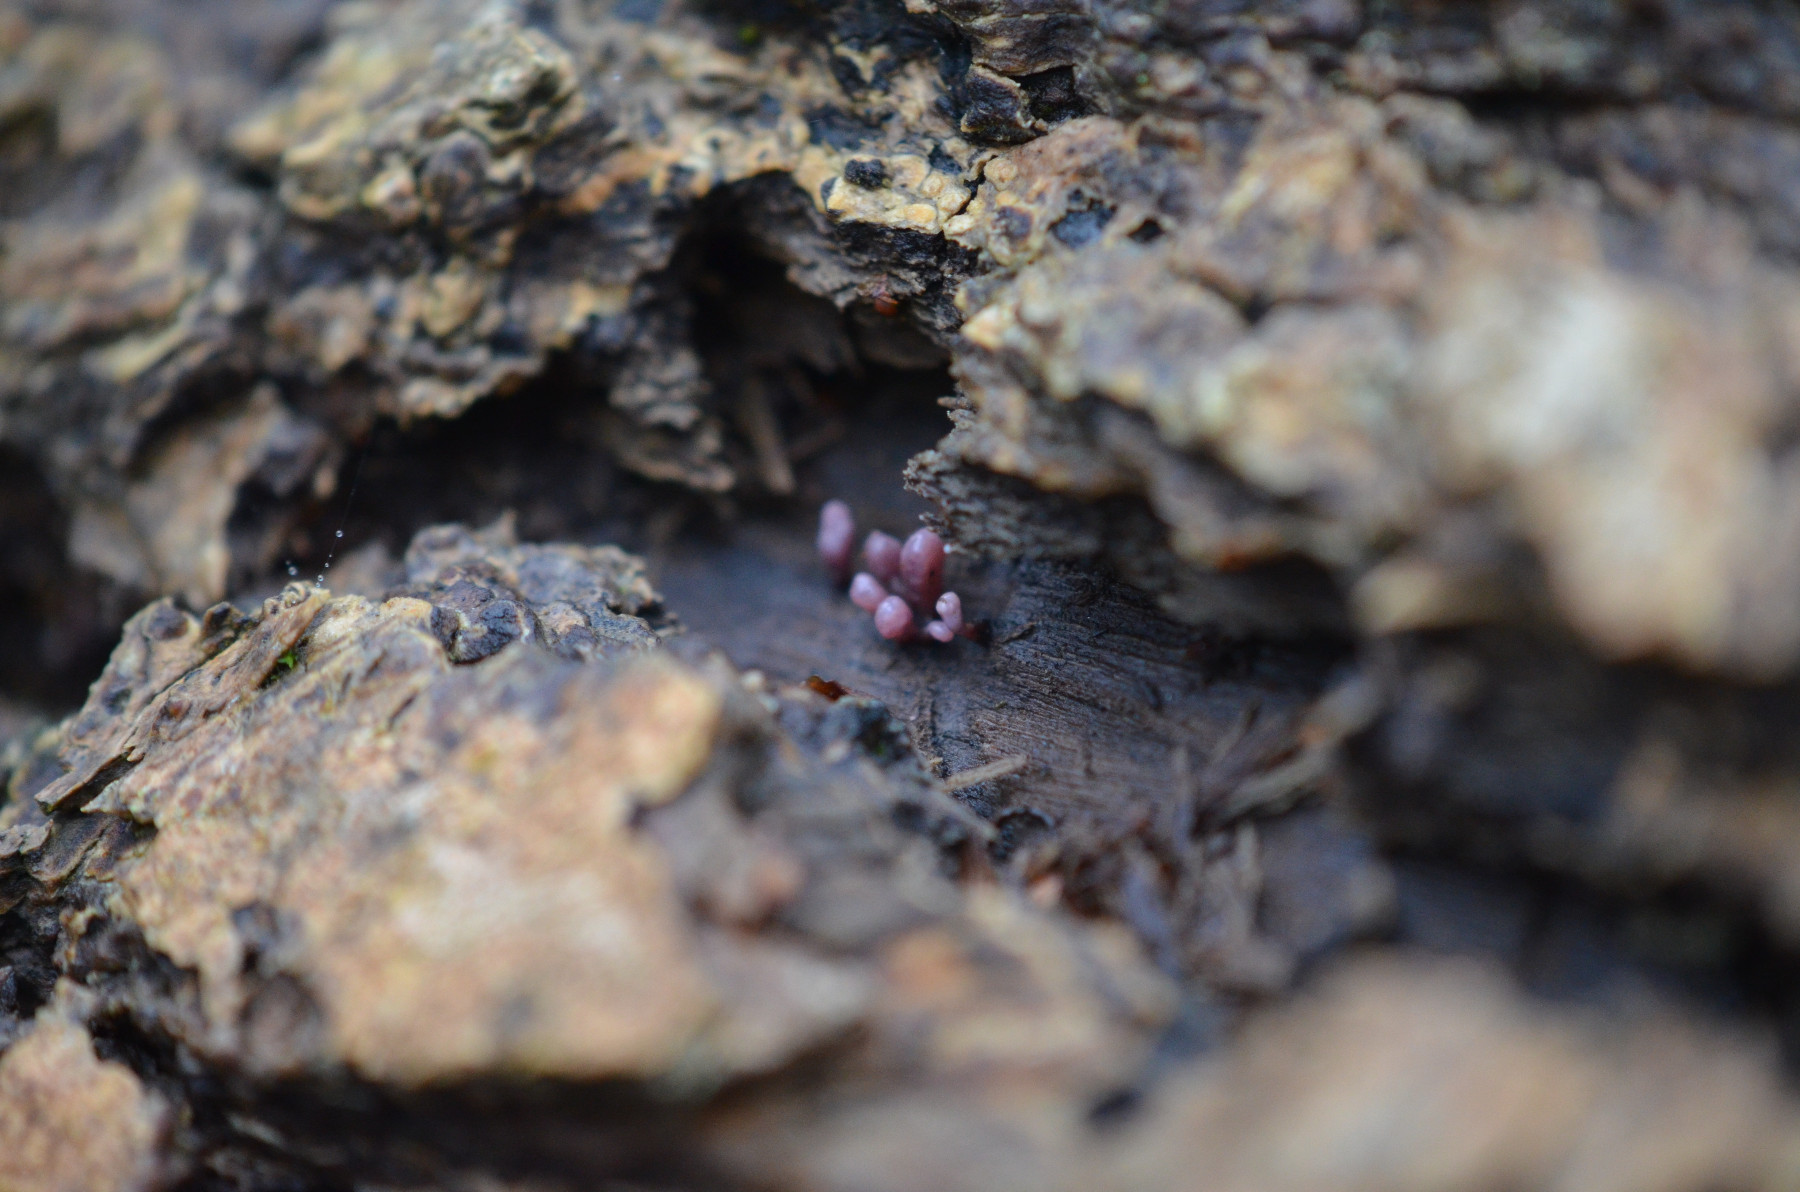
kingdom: Fungi
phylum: Basidiomycota
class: Agaricomycetes
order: Polyporales
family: Meruliaceae
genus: Phlebia
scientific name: Phlebia radiata
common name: stråle-åresvamp
